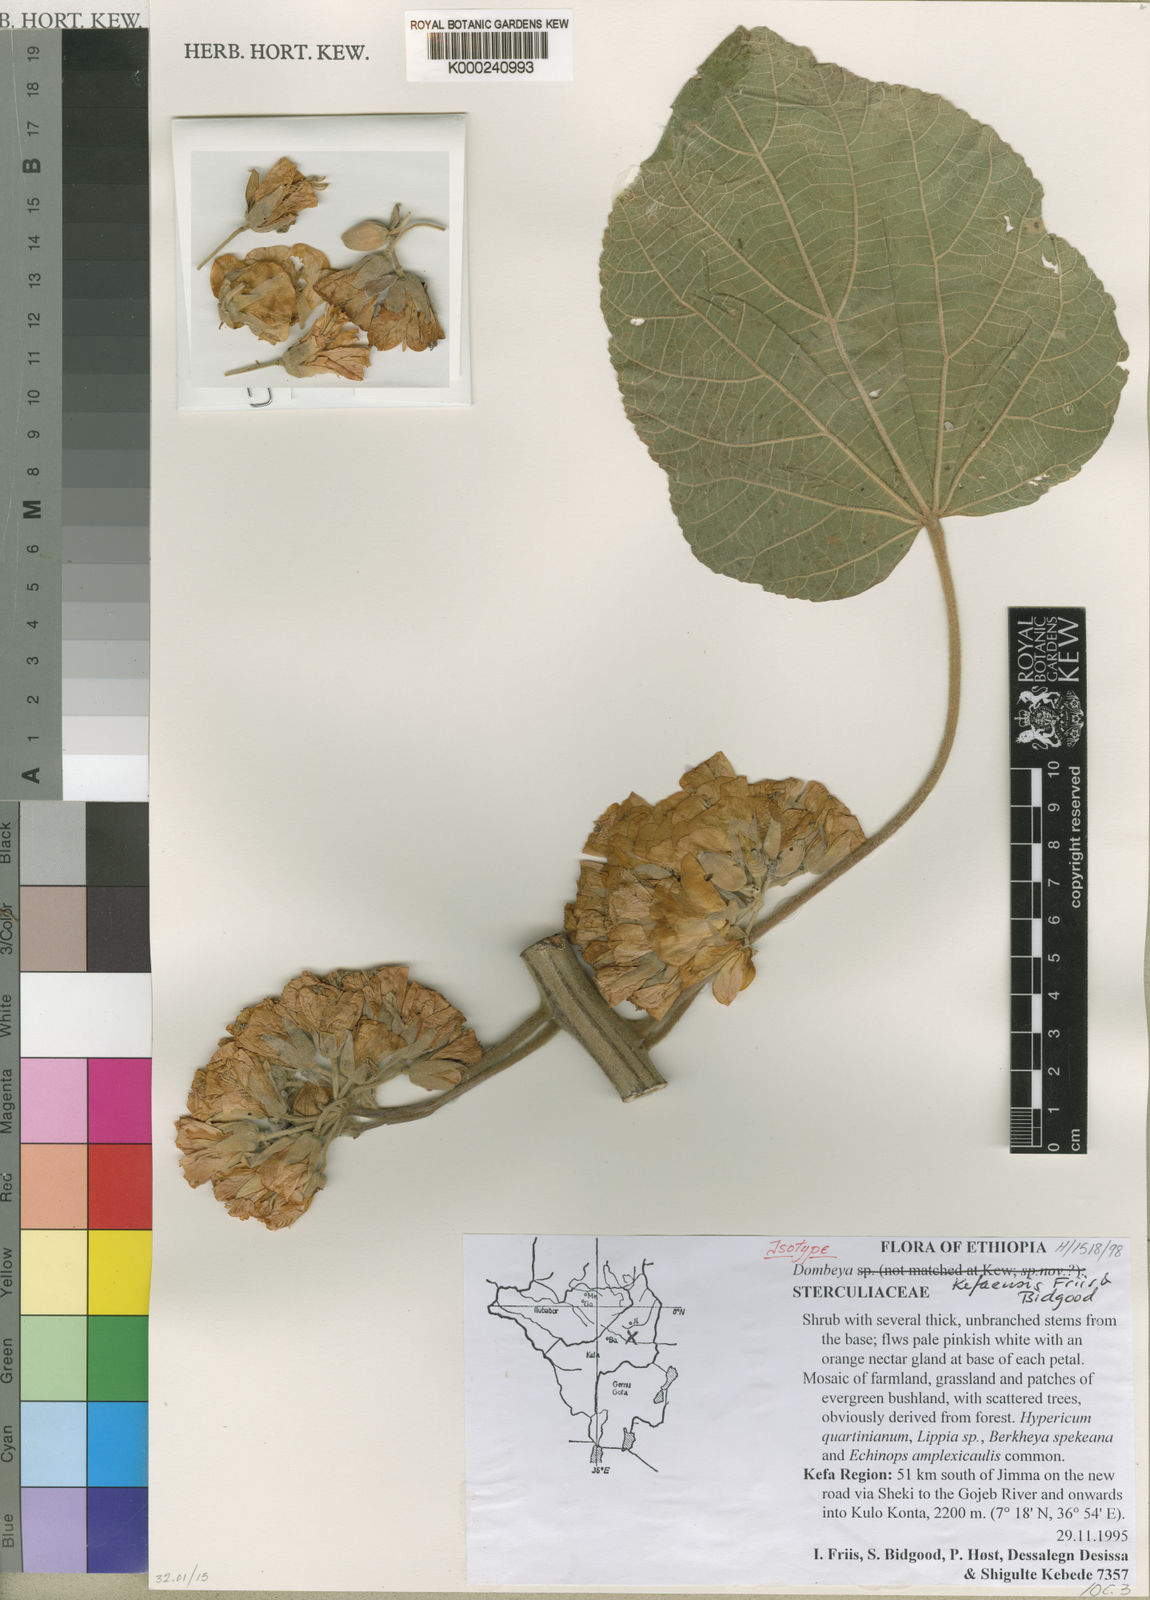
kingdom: Plantae
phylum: Tracheophyta
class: Magnoliopsida
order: Malvales
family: Malvaceae
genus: Dombeya
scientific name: Dombeya kefaensis
